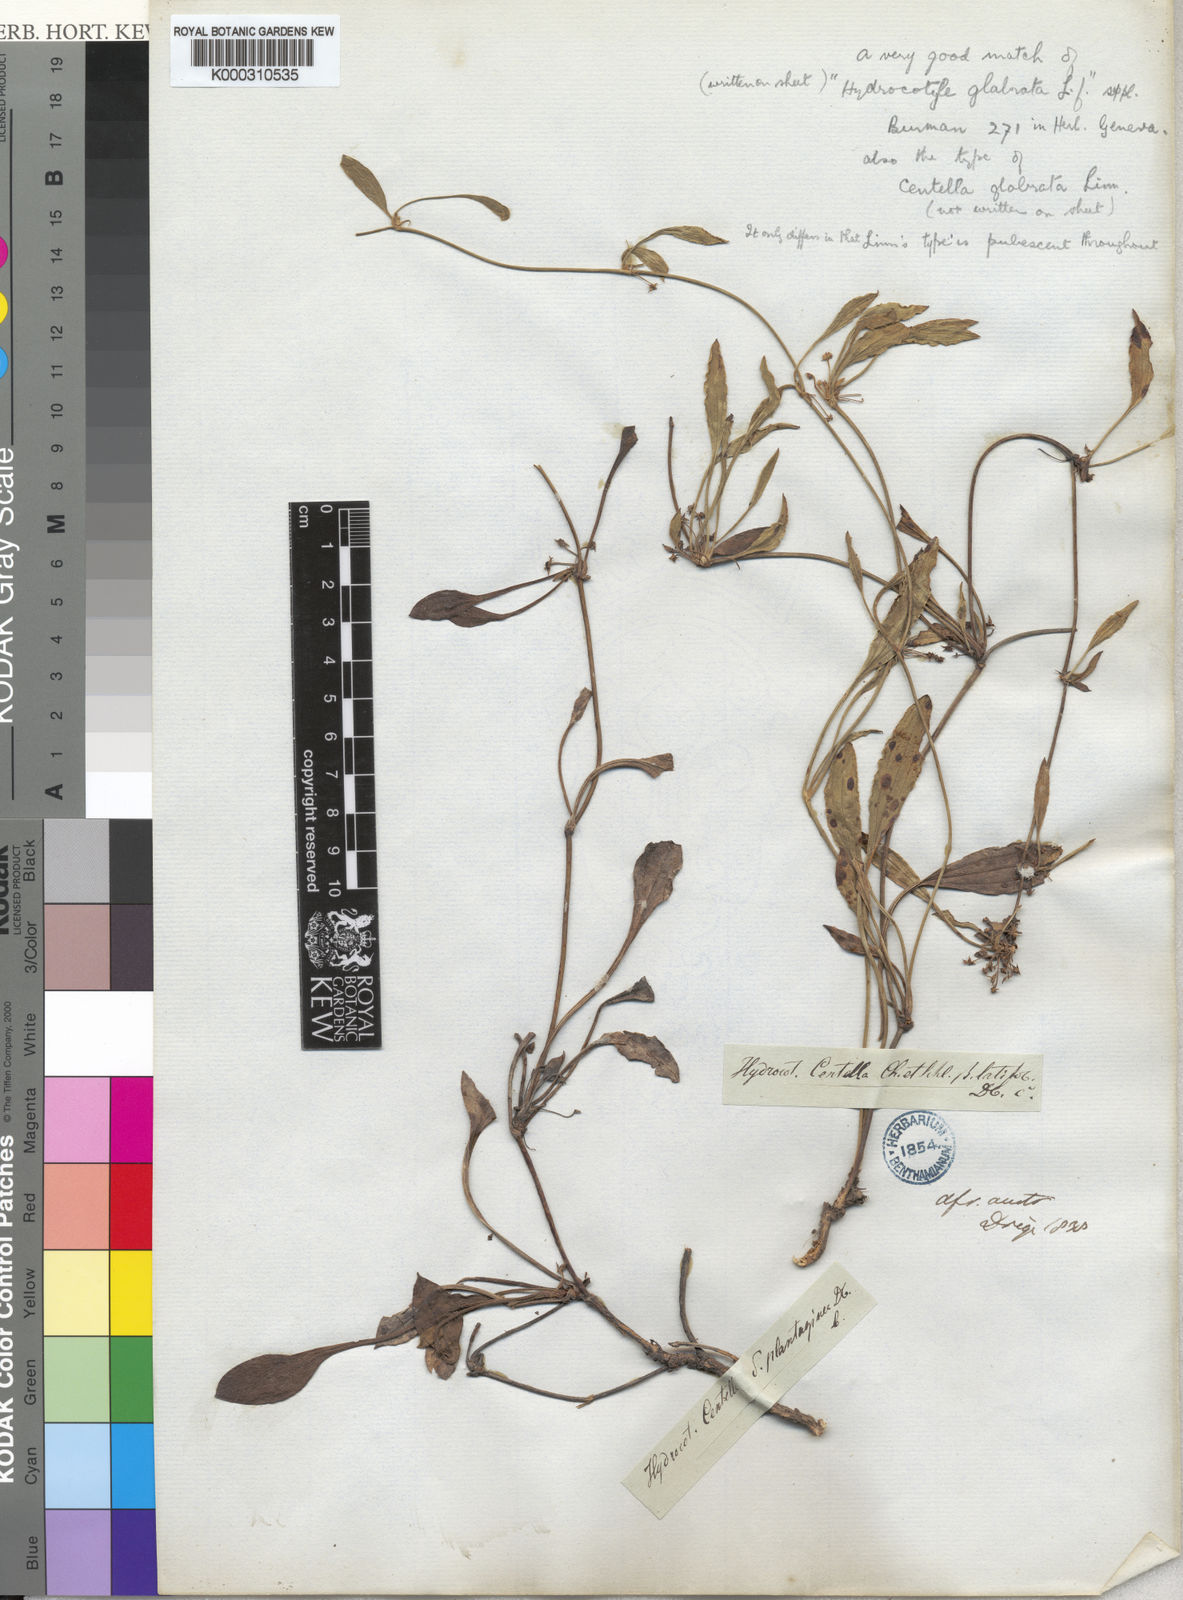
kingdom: Plantae
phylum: Tracheophyta
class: Magnoliopsida
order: Apiales
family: Apiaceae
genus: Centella
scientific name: Centella glabrata
